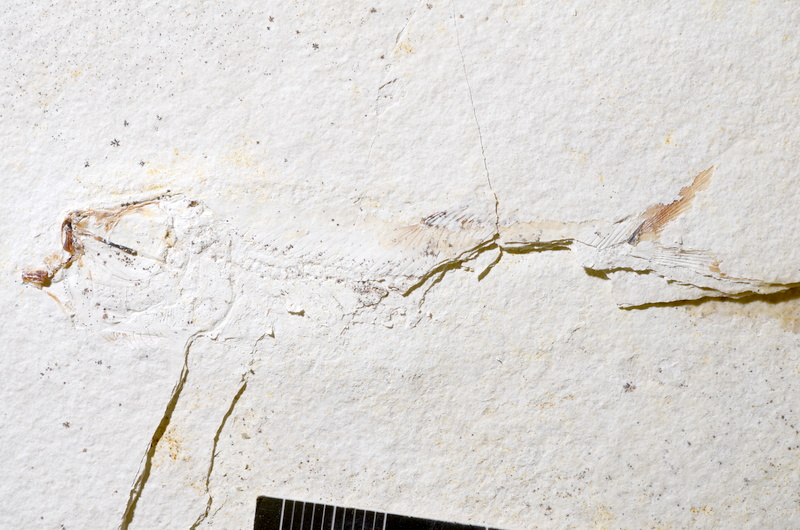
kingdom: Animalia
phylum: Chordata
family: Ascalaboidae
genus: Ebertichthys
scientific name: Ebertichthys ettlingensis
